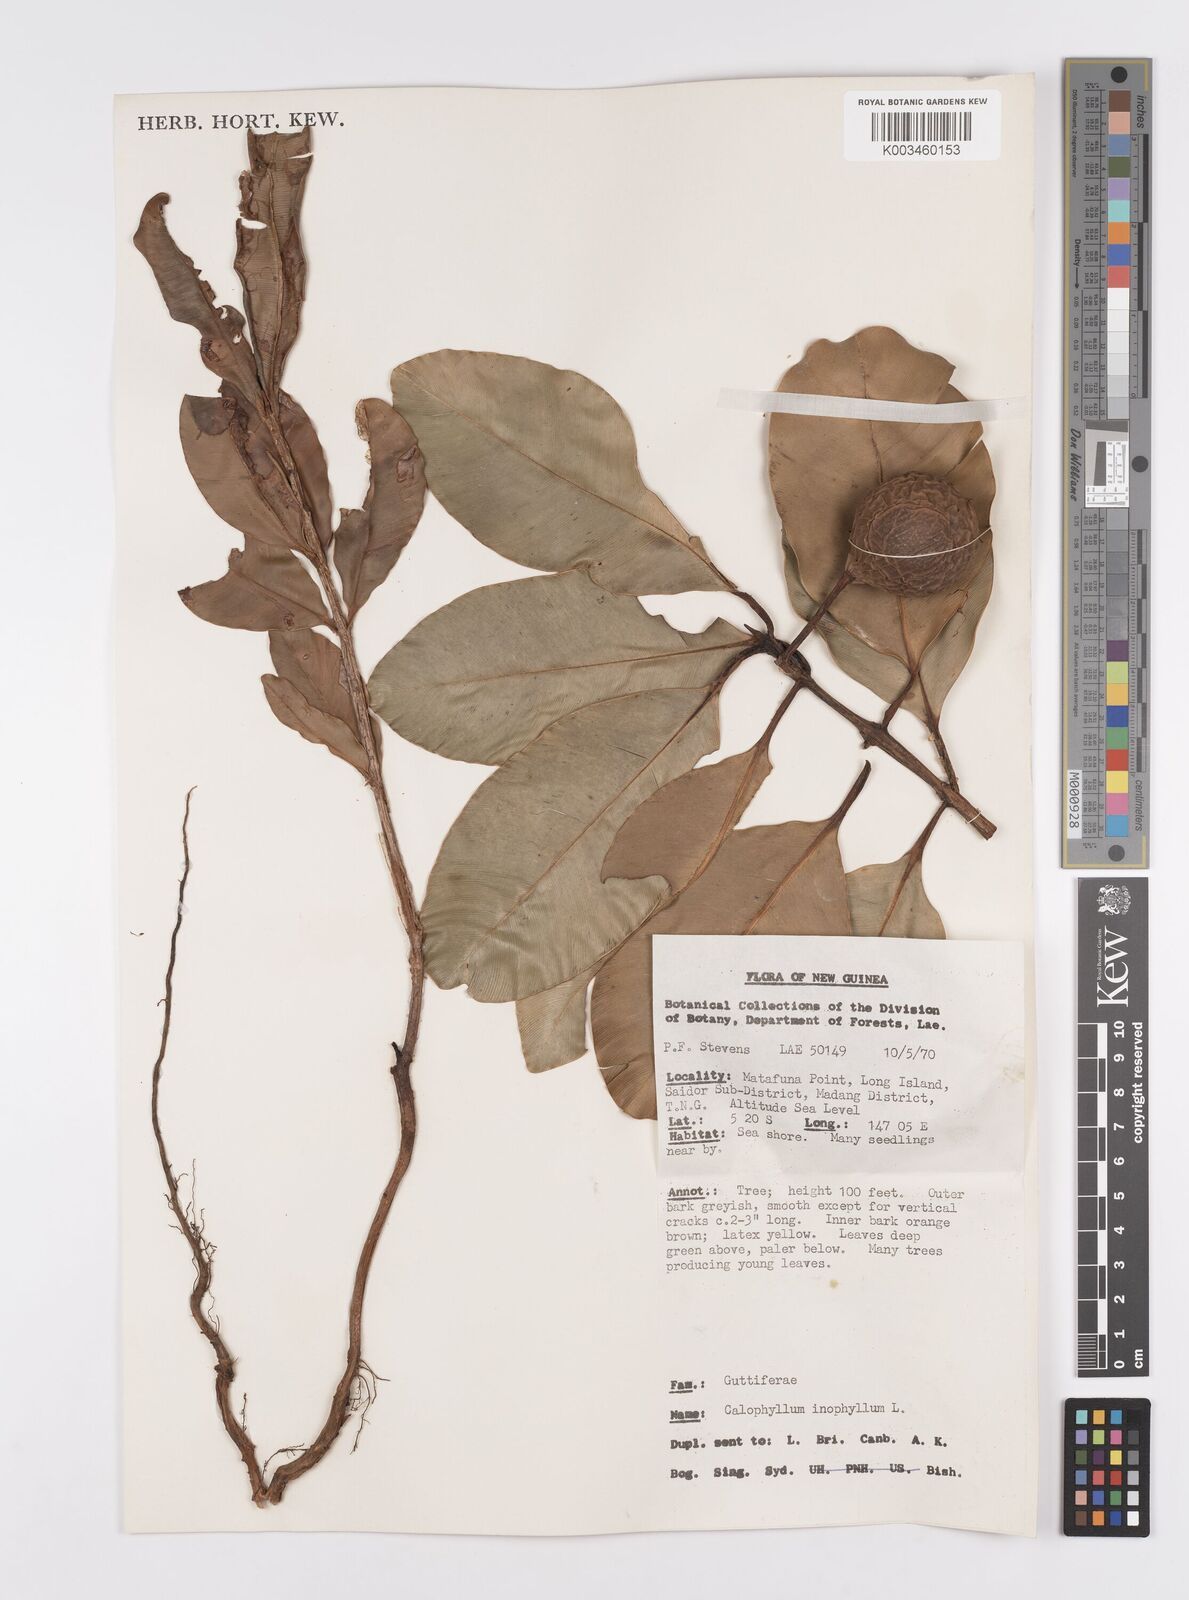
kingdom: Plantae
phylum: Tracheophyta
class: Magnoliopsida
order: Malpighiales
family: Calophyllaceae
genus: Calophyllum
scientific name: Calophyllum inophyllum
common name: Alexandrian laurel
